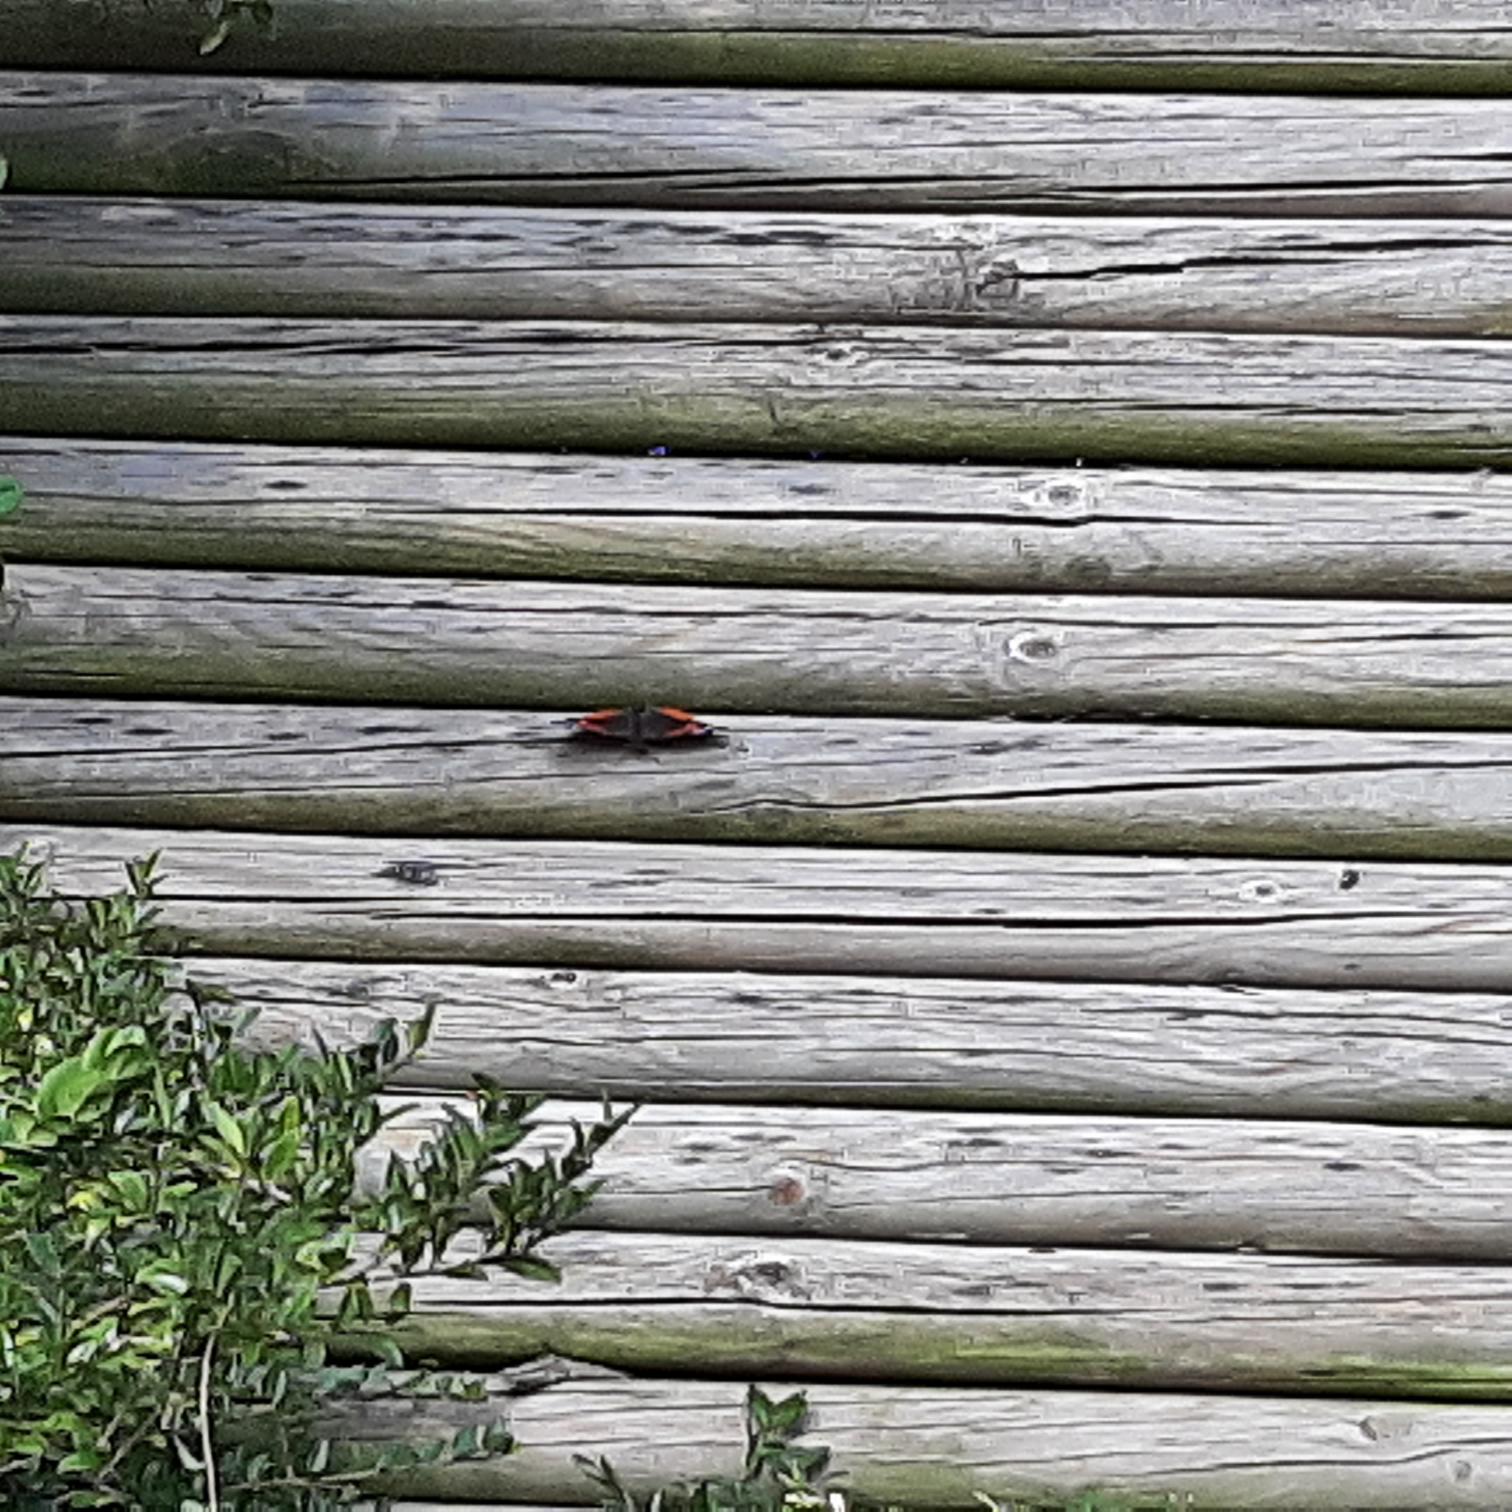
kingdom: Animalia
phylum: Arthropoda
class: Insecta
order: Lepidoptera
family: Nymphalidae
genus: Vanessa
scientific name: Vanessa atalanta
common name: Admiral
